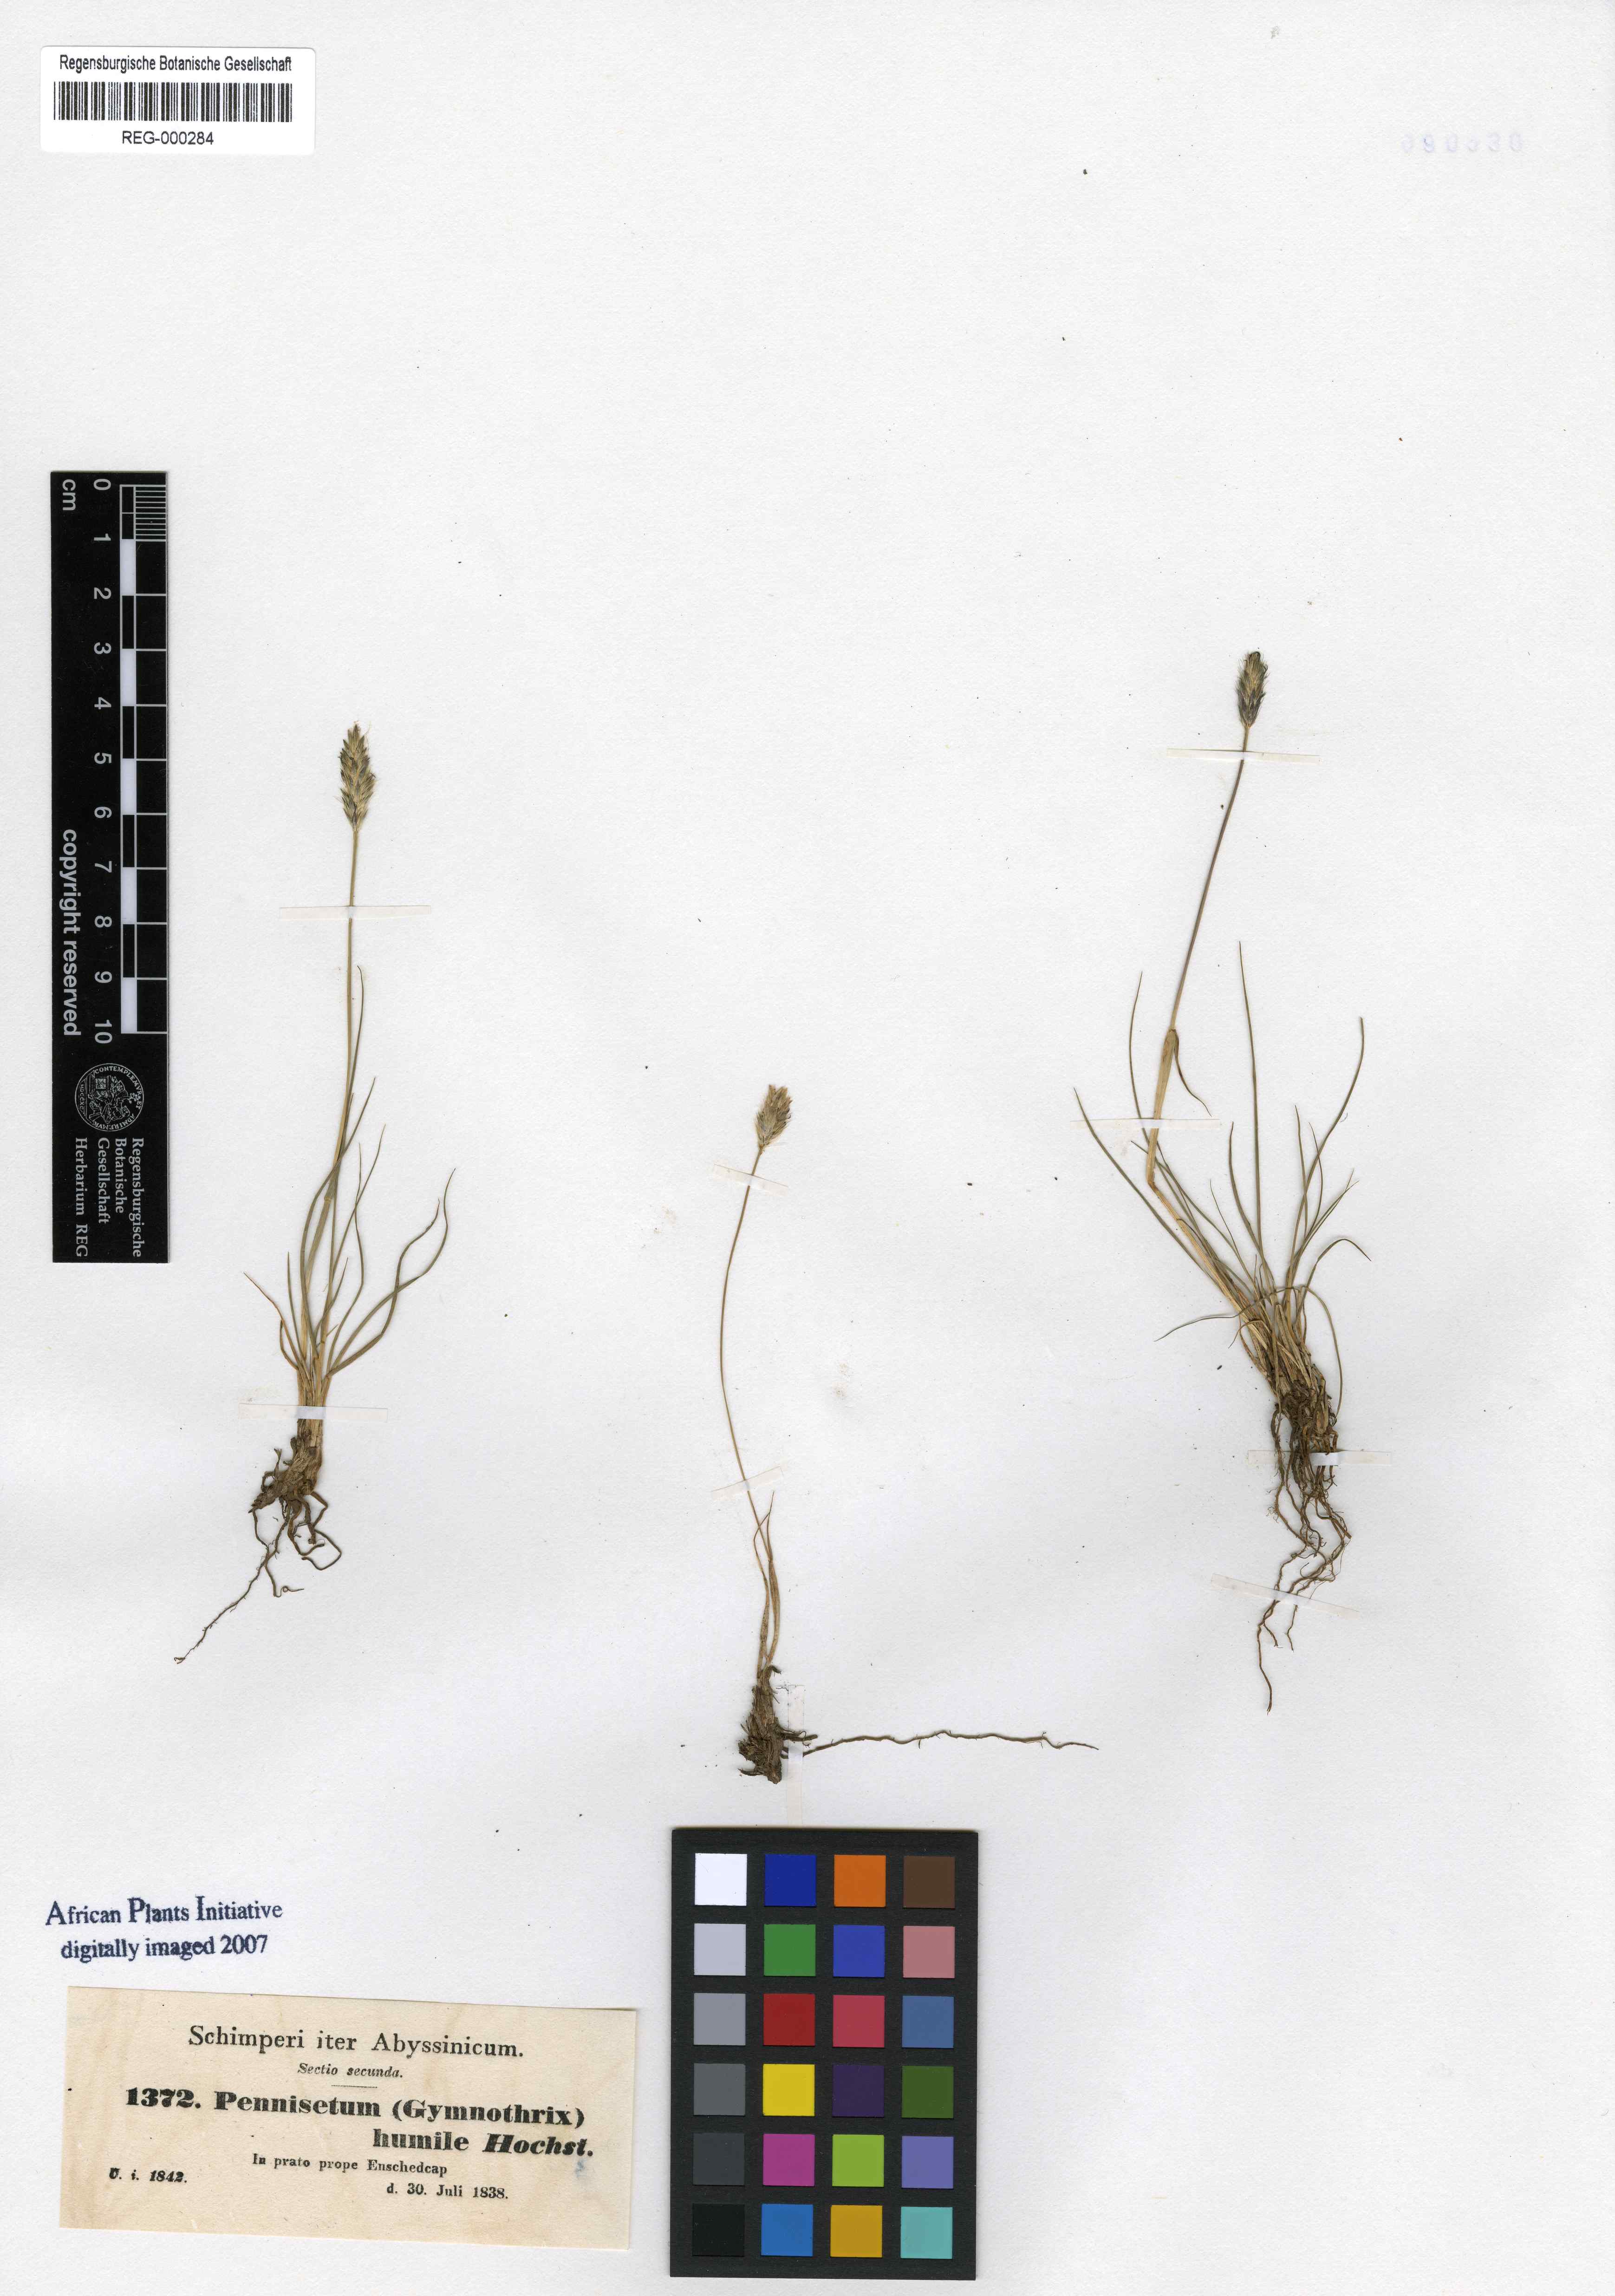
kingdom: Plantae
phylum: Tracheophyta
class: Liliopsida
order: Poales
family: Poaceae
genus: Cenchrus
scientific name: Cenchrus nanus
